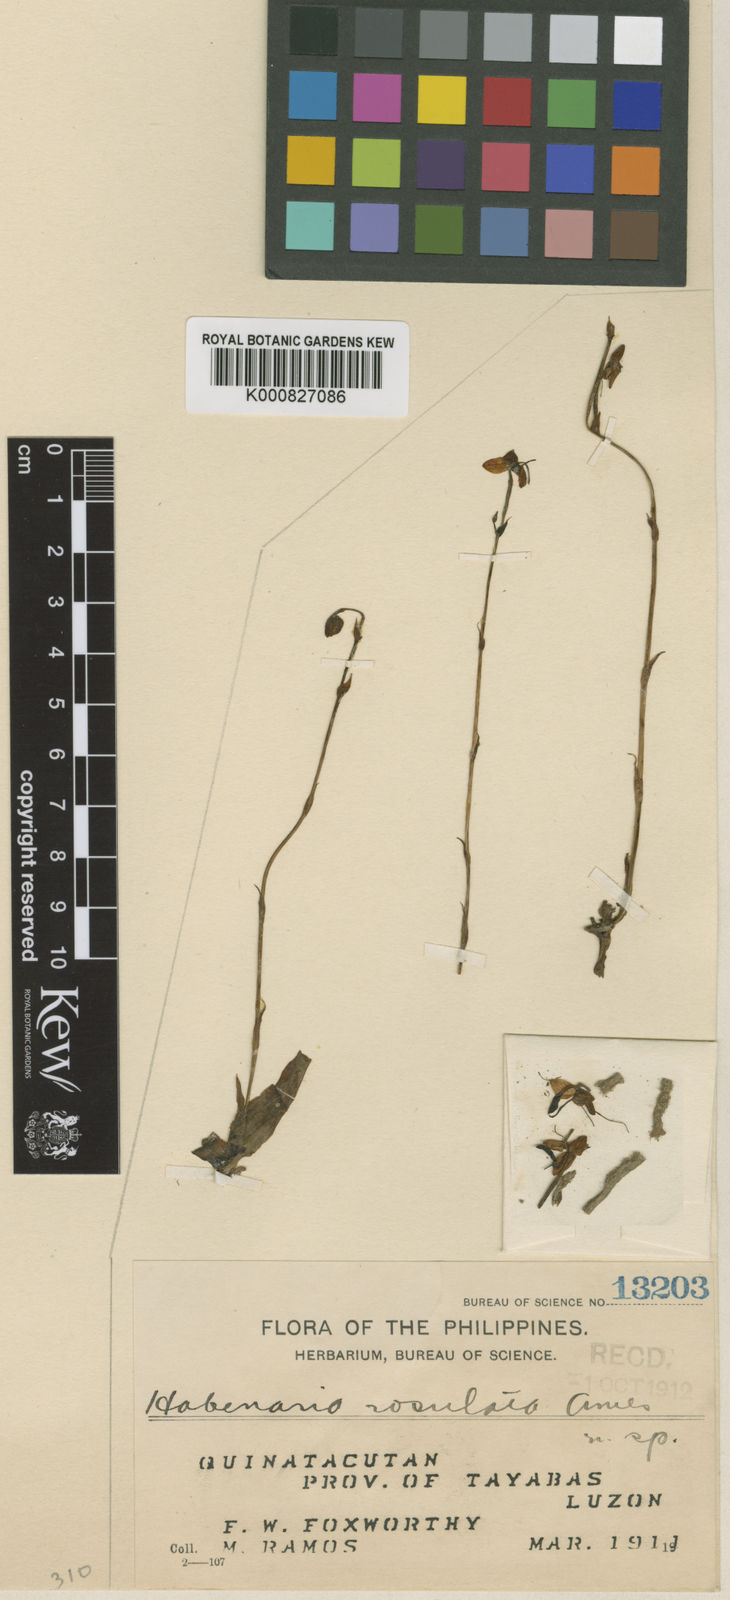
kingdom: Plantae
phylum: Tracheophyta
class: Liliopsida
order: Asparagales
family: Orchidaceae
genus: Habenaria
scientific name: Habenaria rosulata
